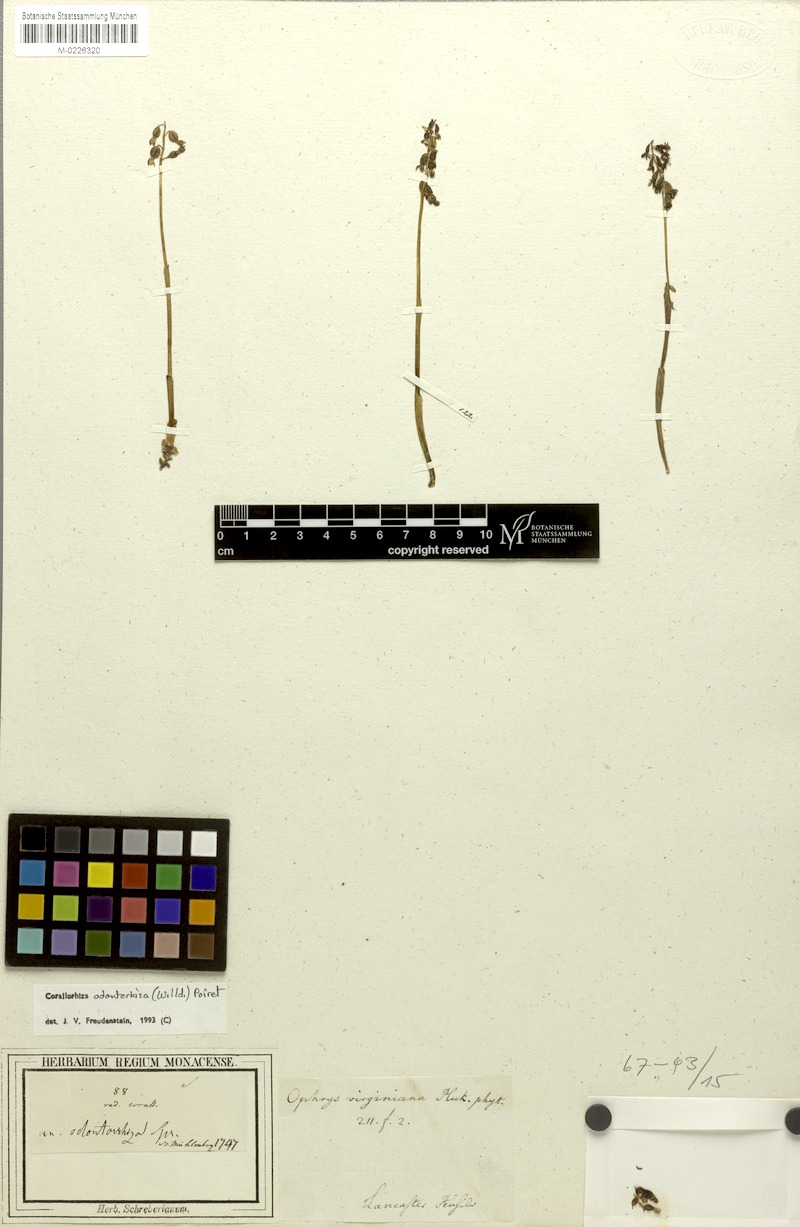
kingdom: Plantae
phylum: Tracheophyta
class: Liliopsida
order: Asparagales
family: Orchidaceae
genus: Corallorhiza
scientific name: Corallorhiza odontorhiza
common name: Autumn coralroot
